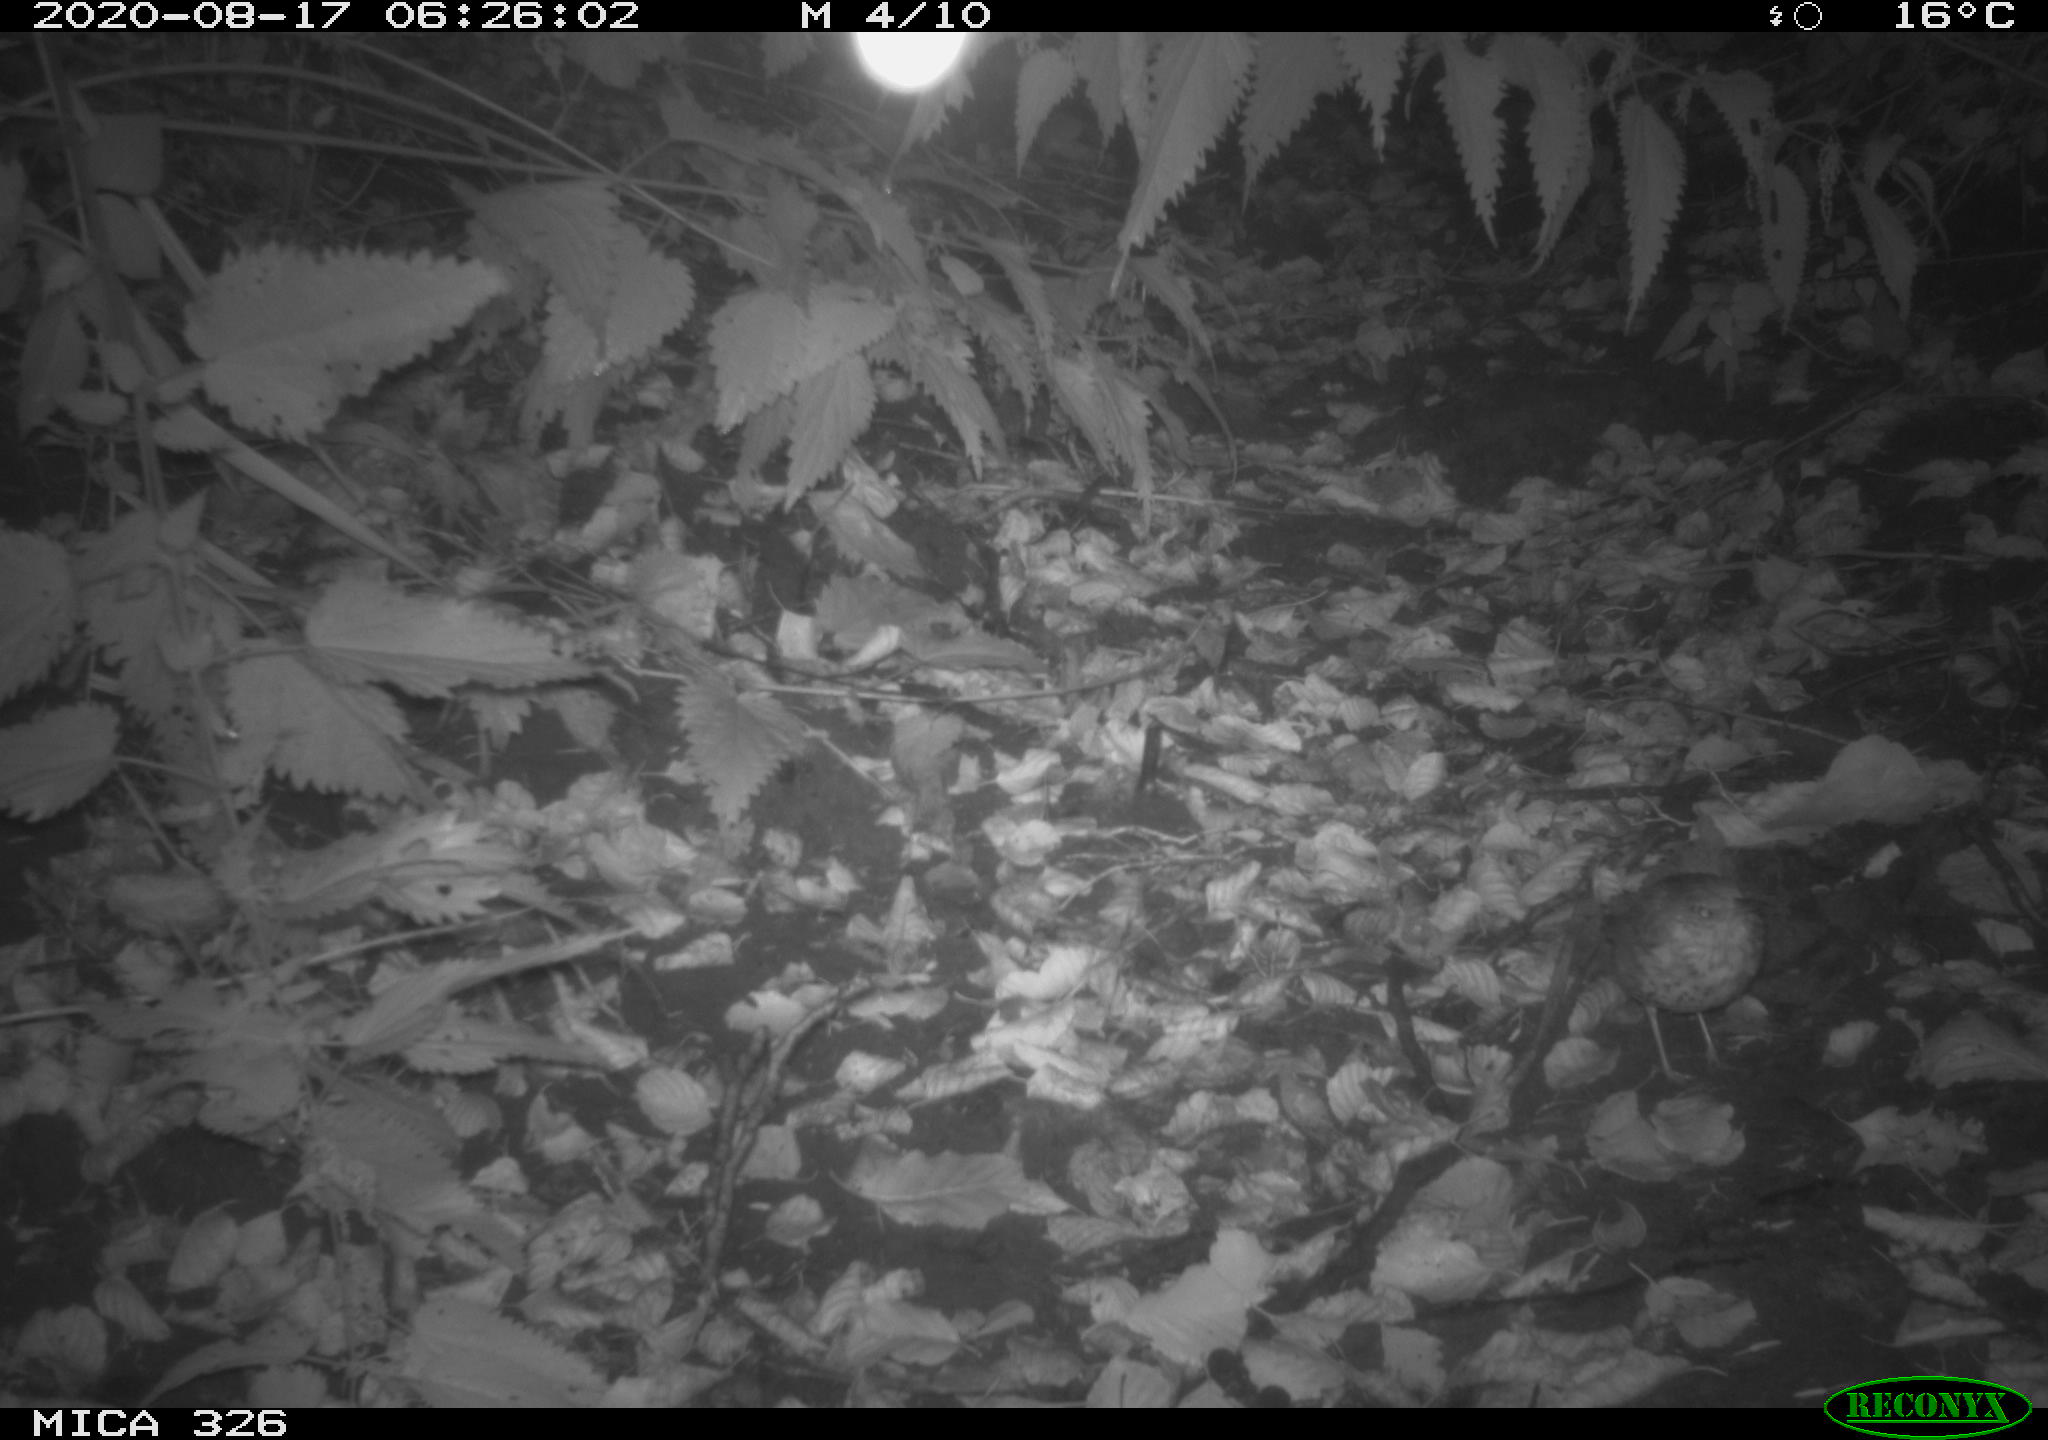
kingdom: Animalia
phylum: Chordata
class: Aves
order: Passeriformes
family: Turdidae
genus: Turdus
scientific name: Turdus philomelos
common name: Song thrush
